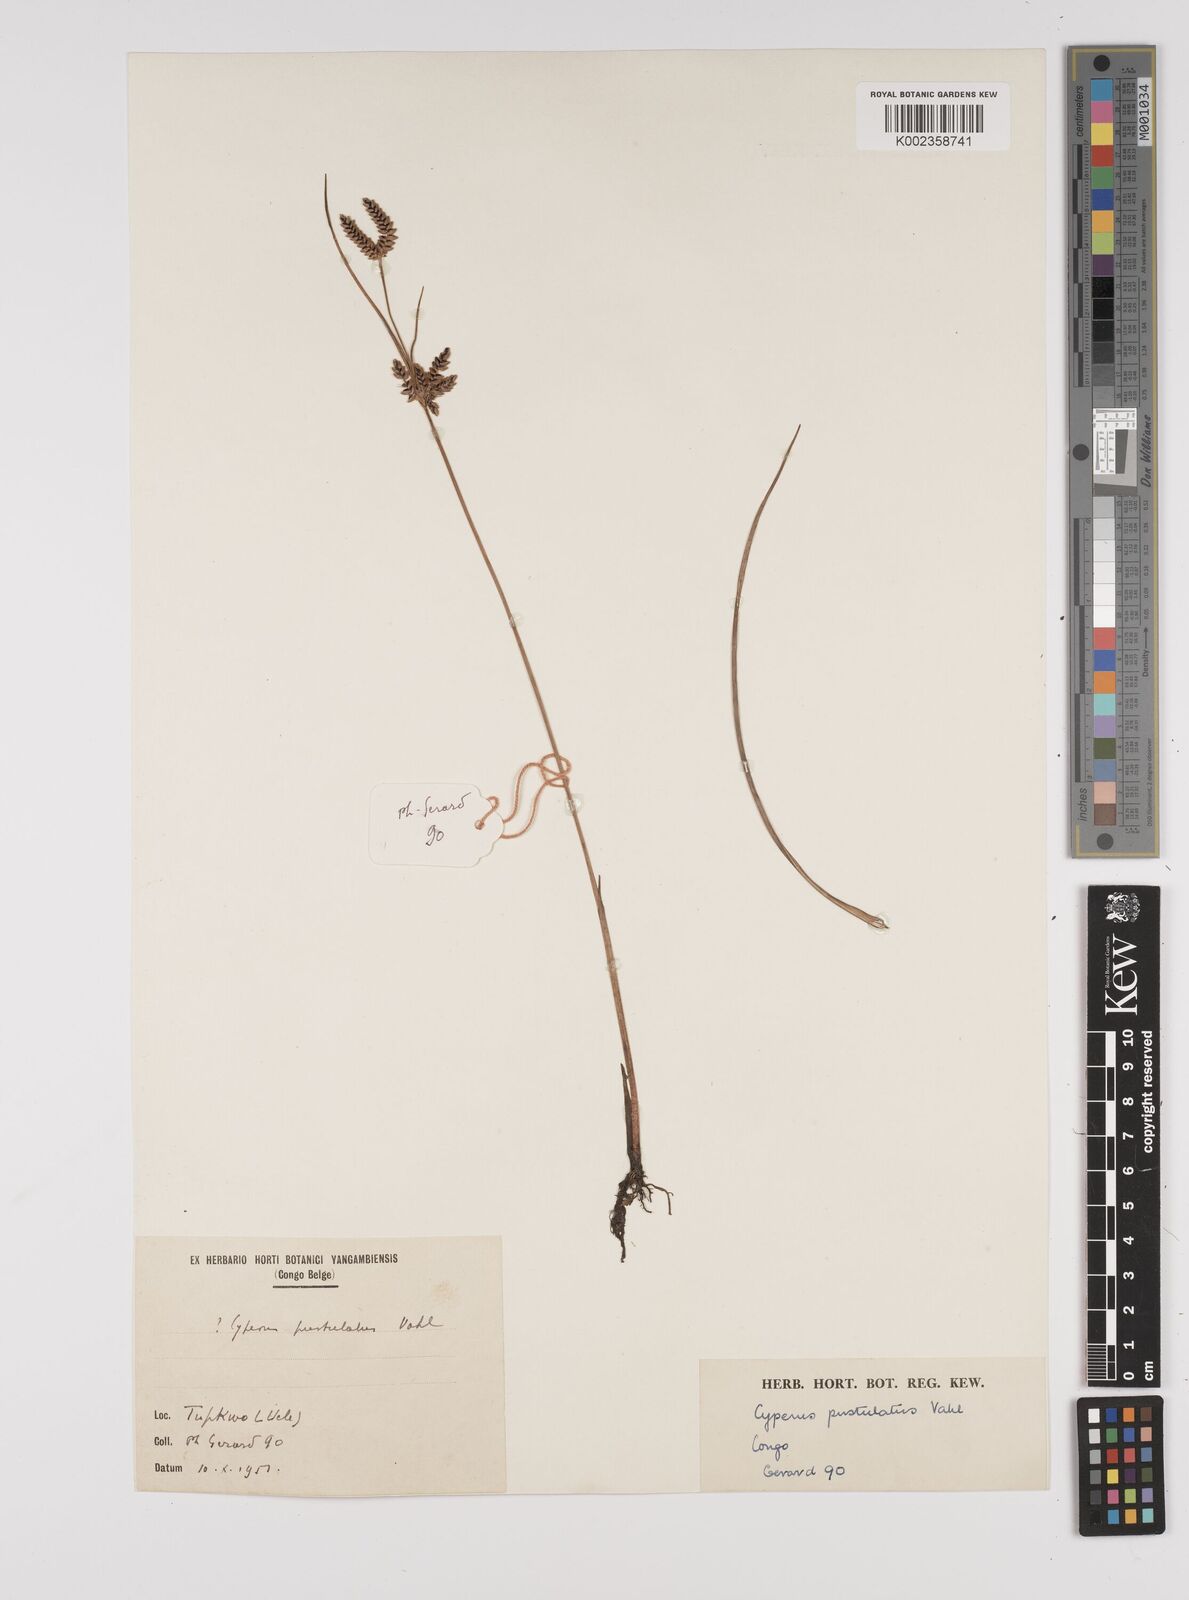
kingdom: Plantae
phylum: Tracheophyta
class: Liliopsida
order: Poales
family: Cyperaceae
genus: Cyperus
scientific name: Cyperus pustulatus
